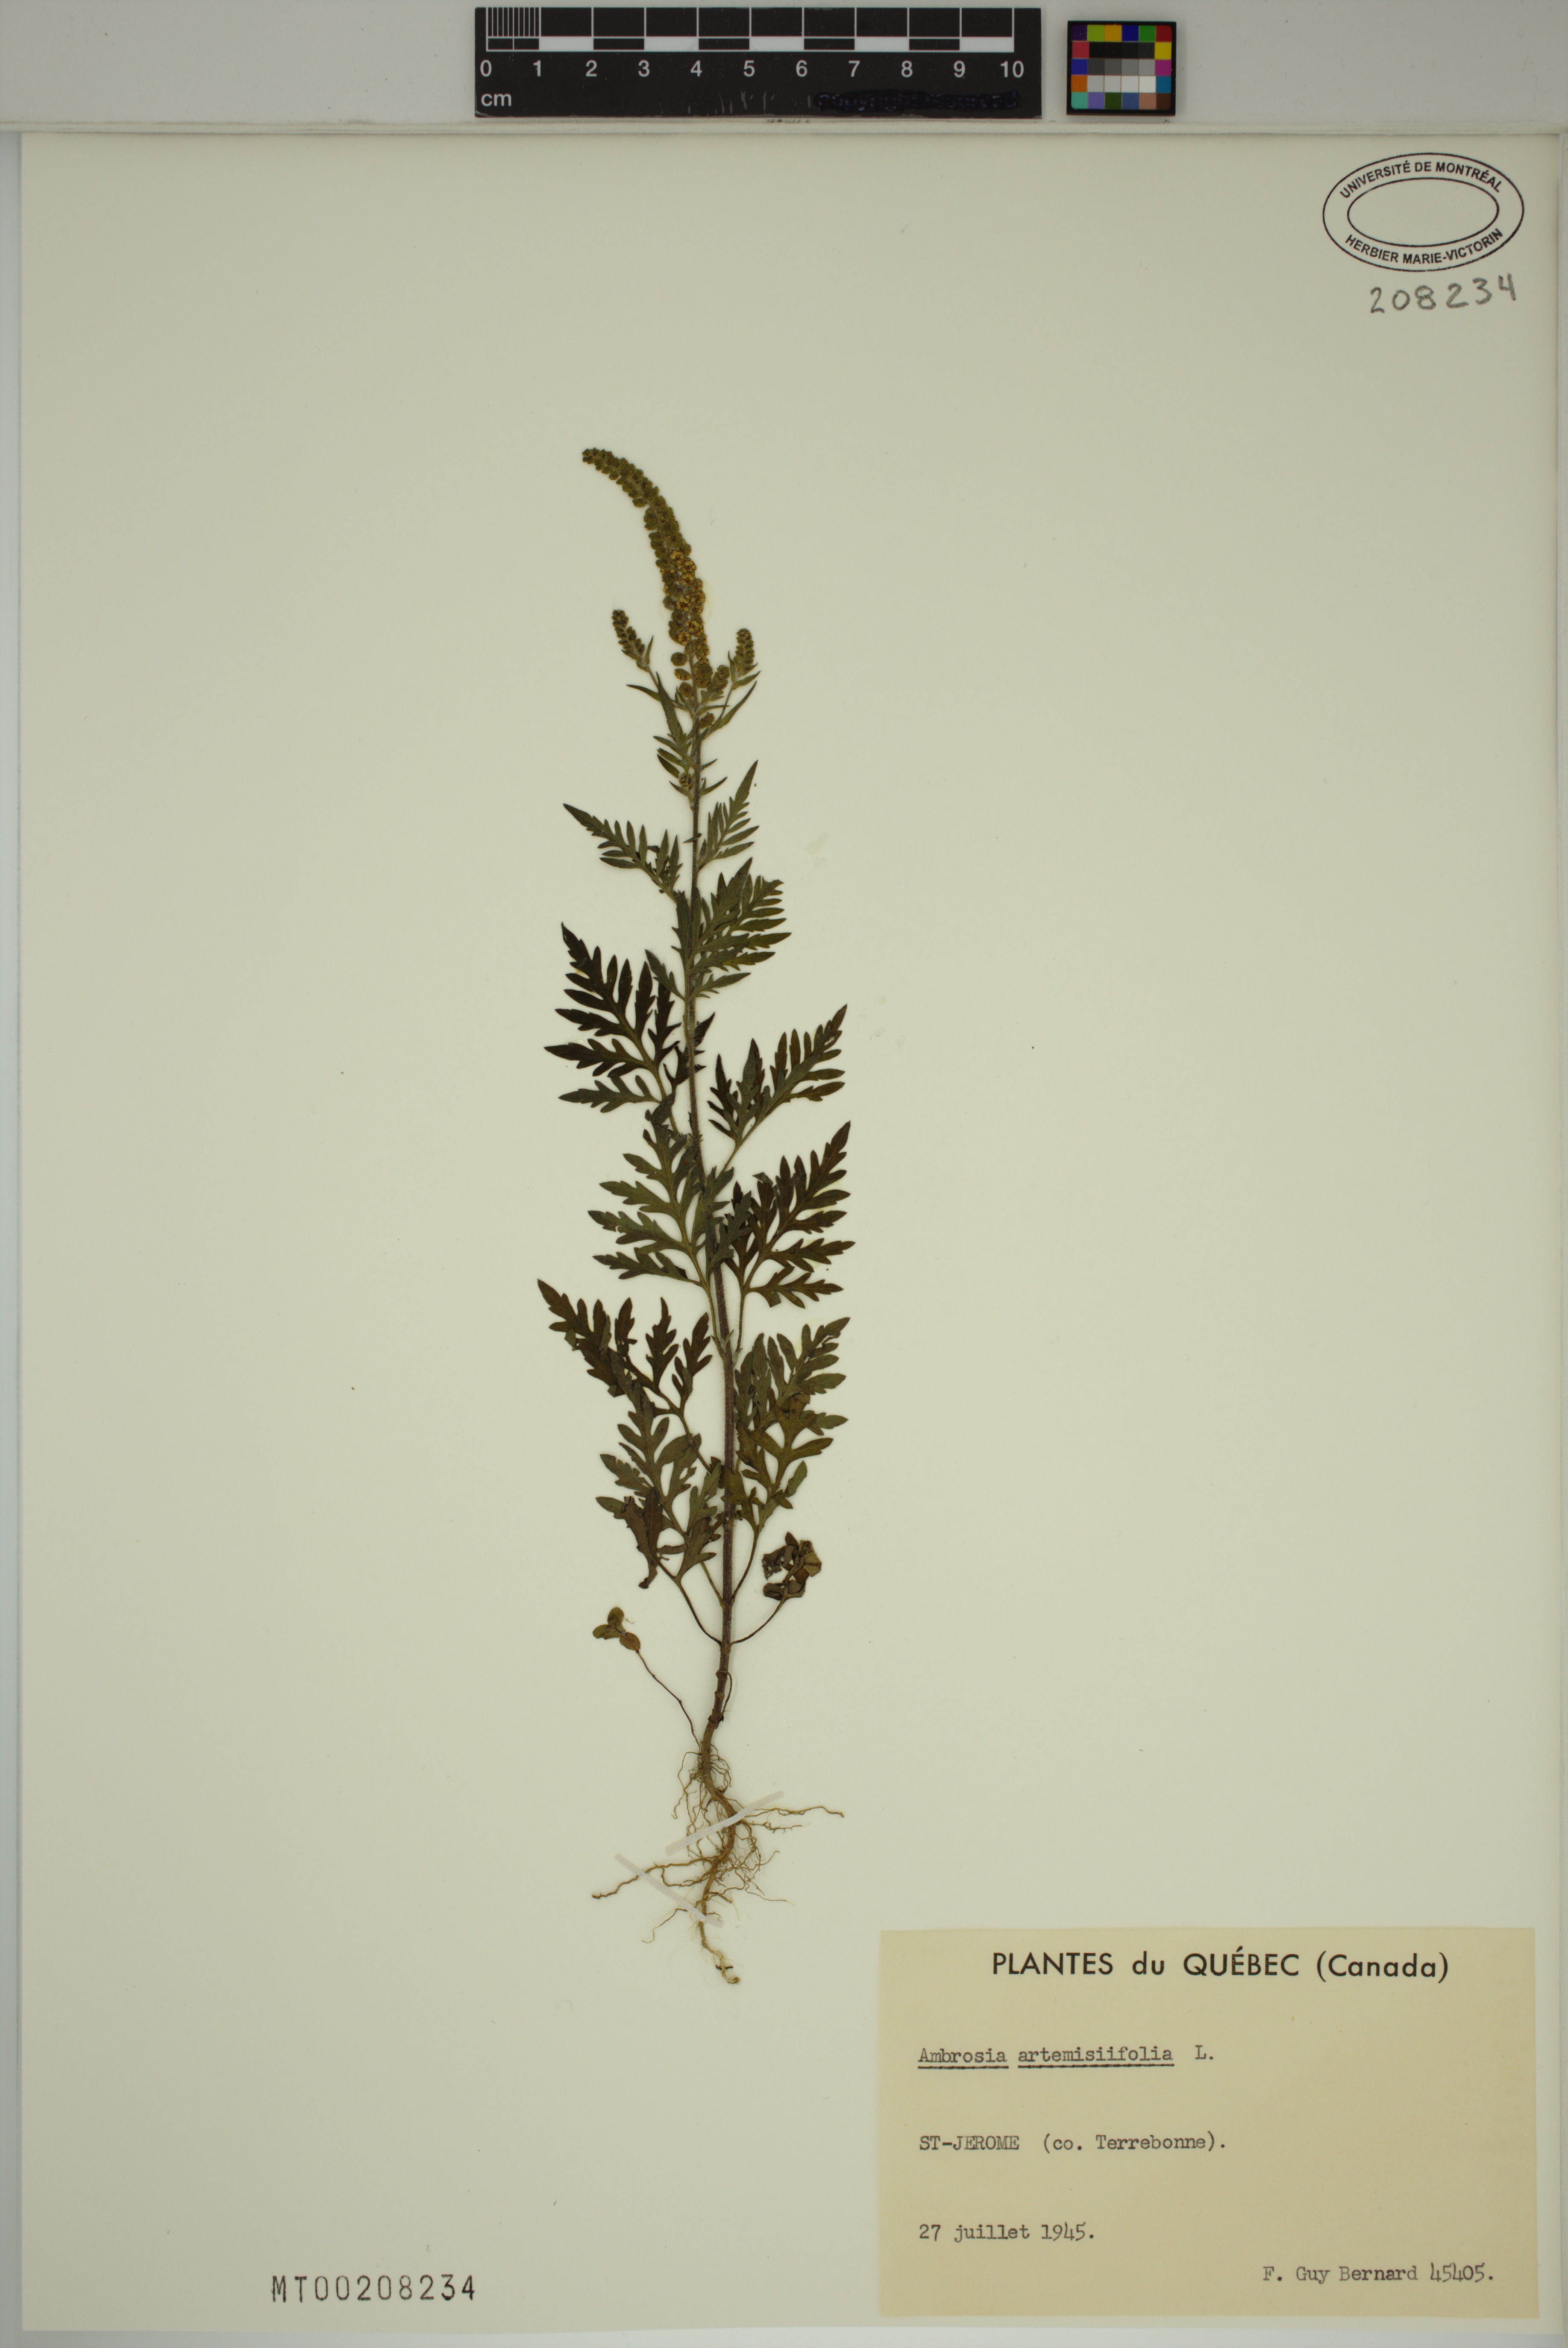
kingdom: Plantae
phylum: Tracheophyta
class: Magnoliopsida
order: Asterales
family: Asteraceae
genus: Ambrosia
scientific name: Ambrosia artemisiifolia
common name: Annual ragweed
